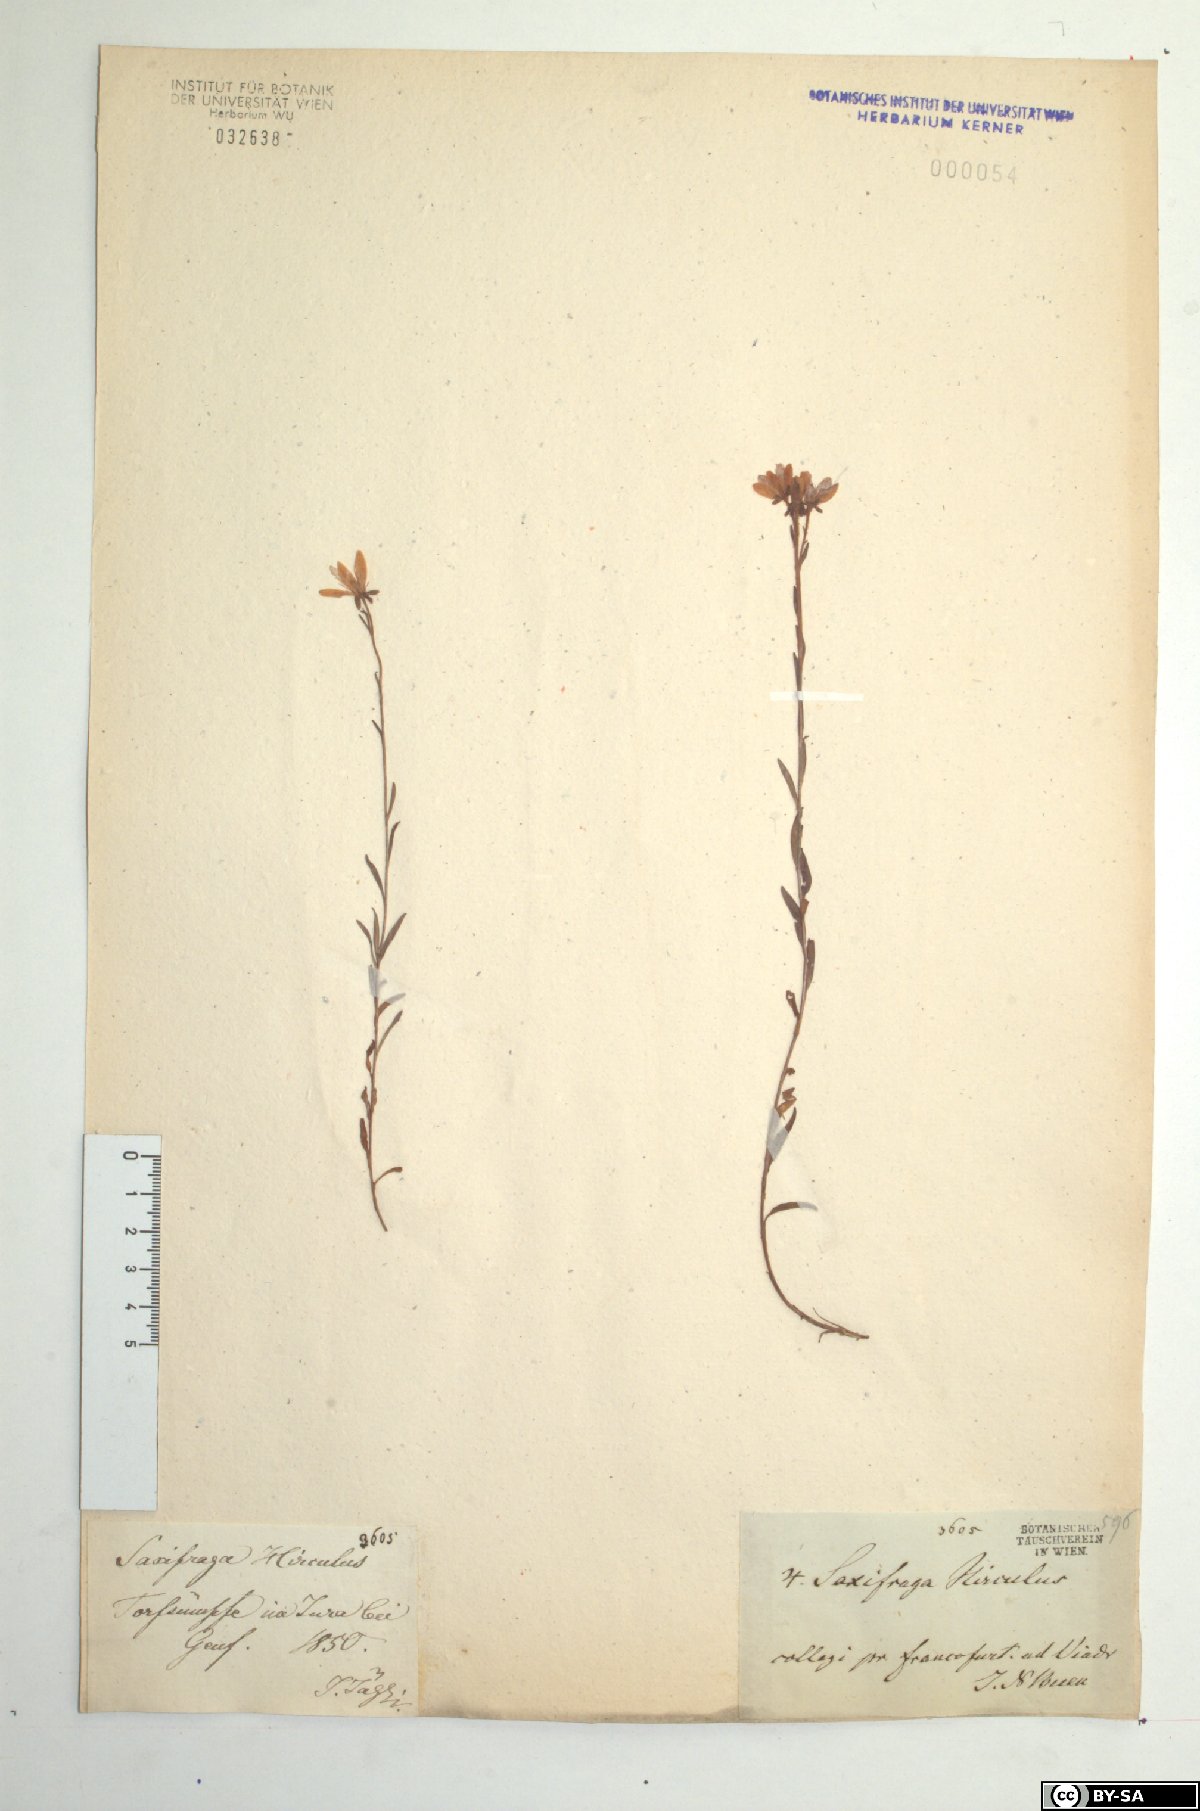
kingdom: Plantae
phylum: Tracheophyta
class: Magnoliopsida
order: Saxifragales
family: Saxifragaceae
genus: Saxifraga
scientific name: Saxifraga hirculus
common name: Yellow marsh saxifrage
